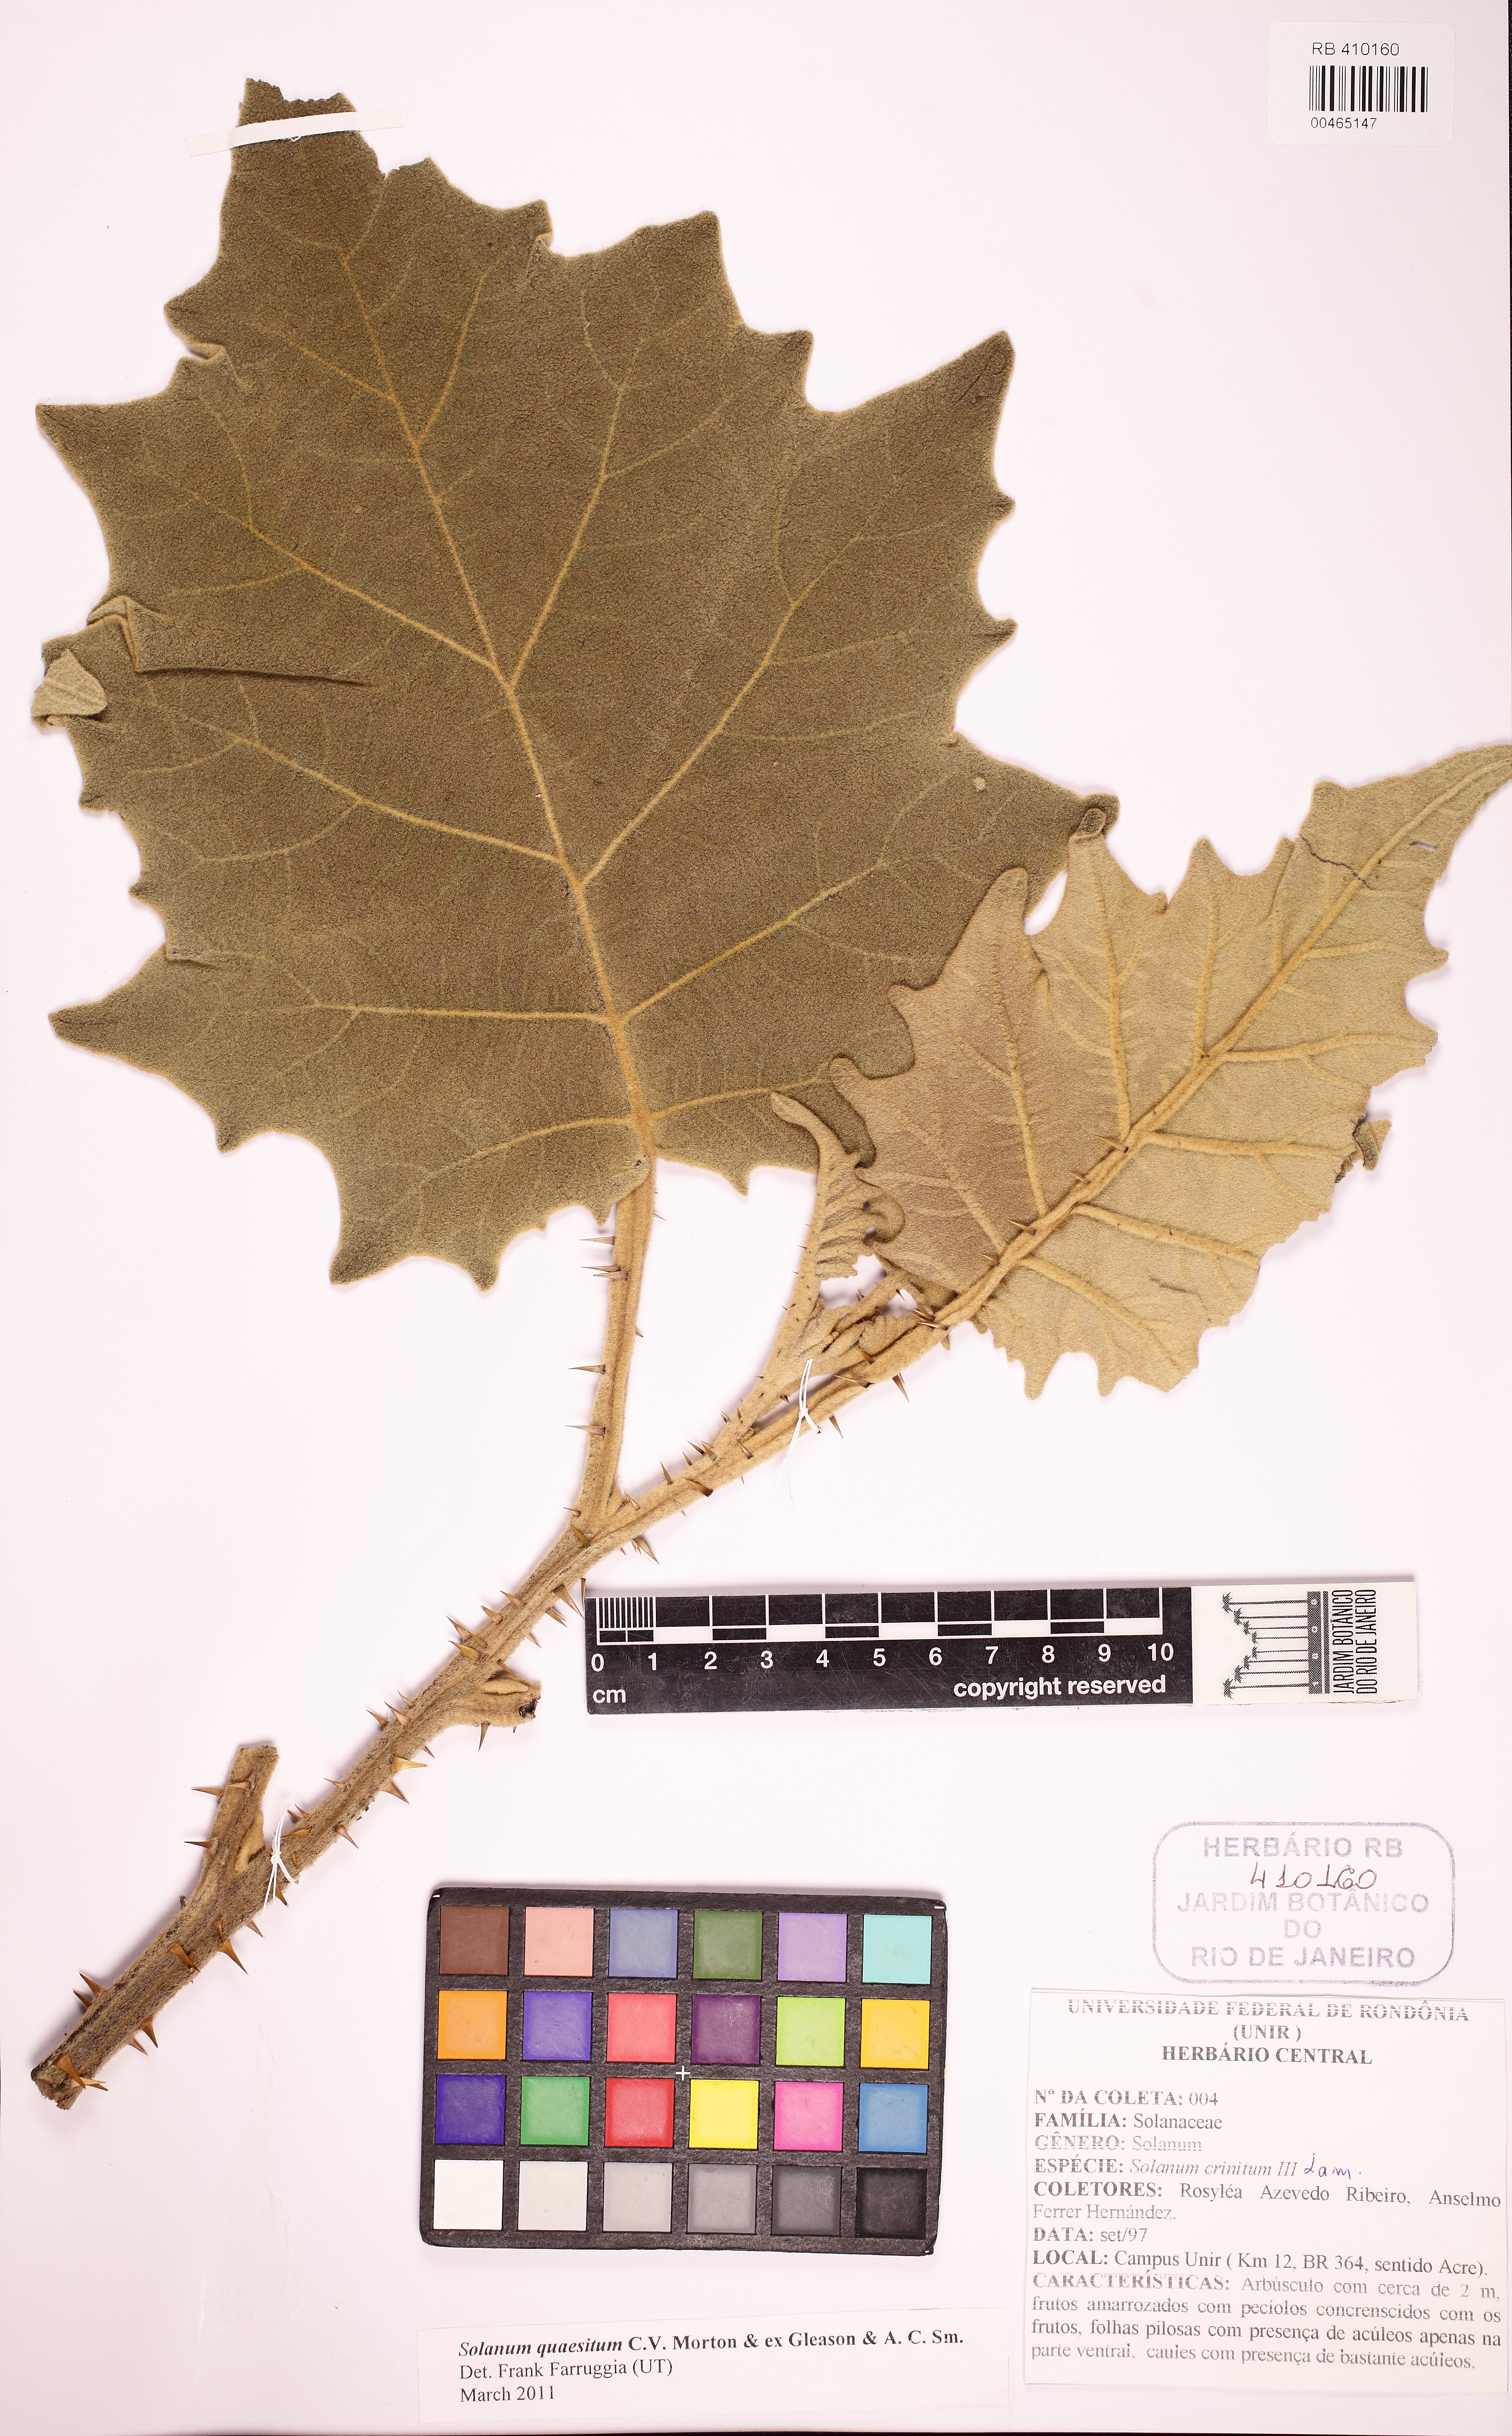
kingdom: Plantae
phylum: Tracheophyta
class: Magnoliopsida
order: Solanales
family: Solanaceae
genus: Solanum
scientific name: Solanum quaesitum
